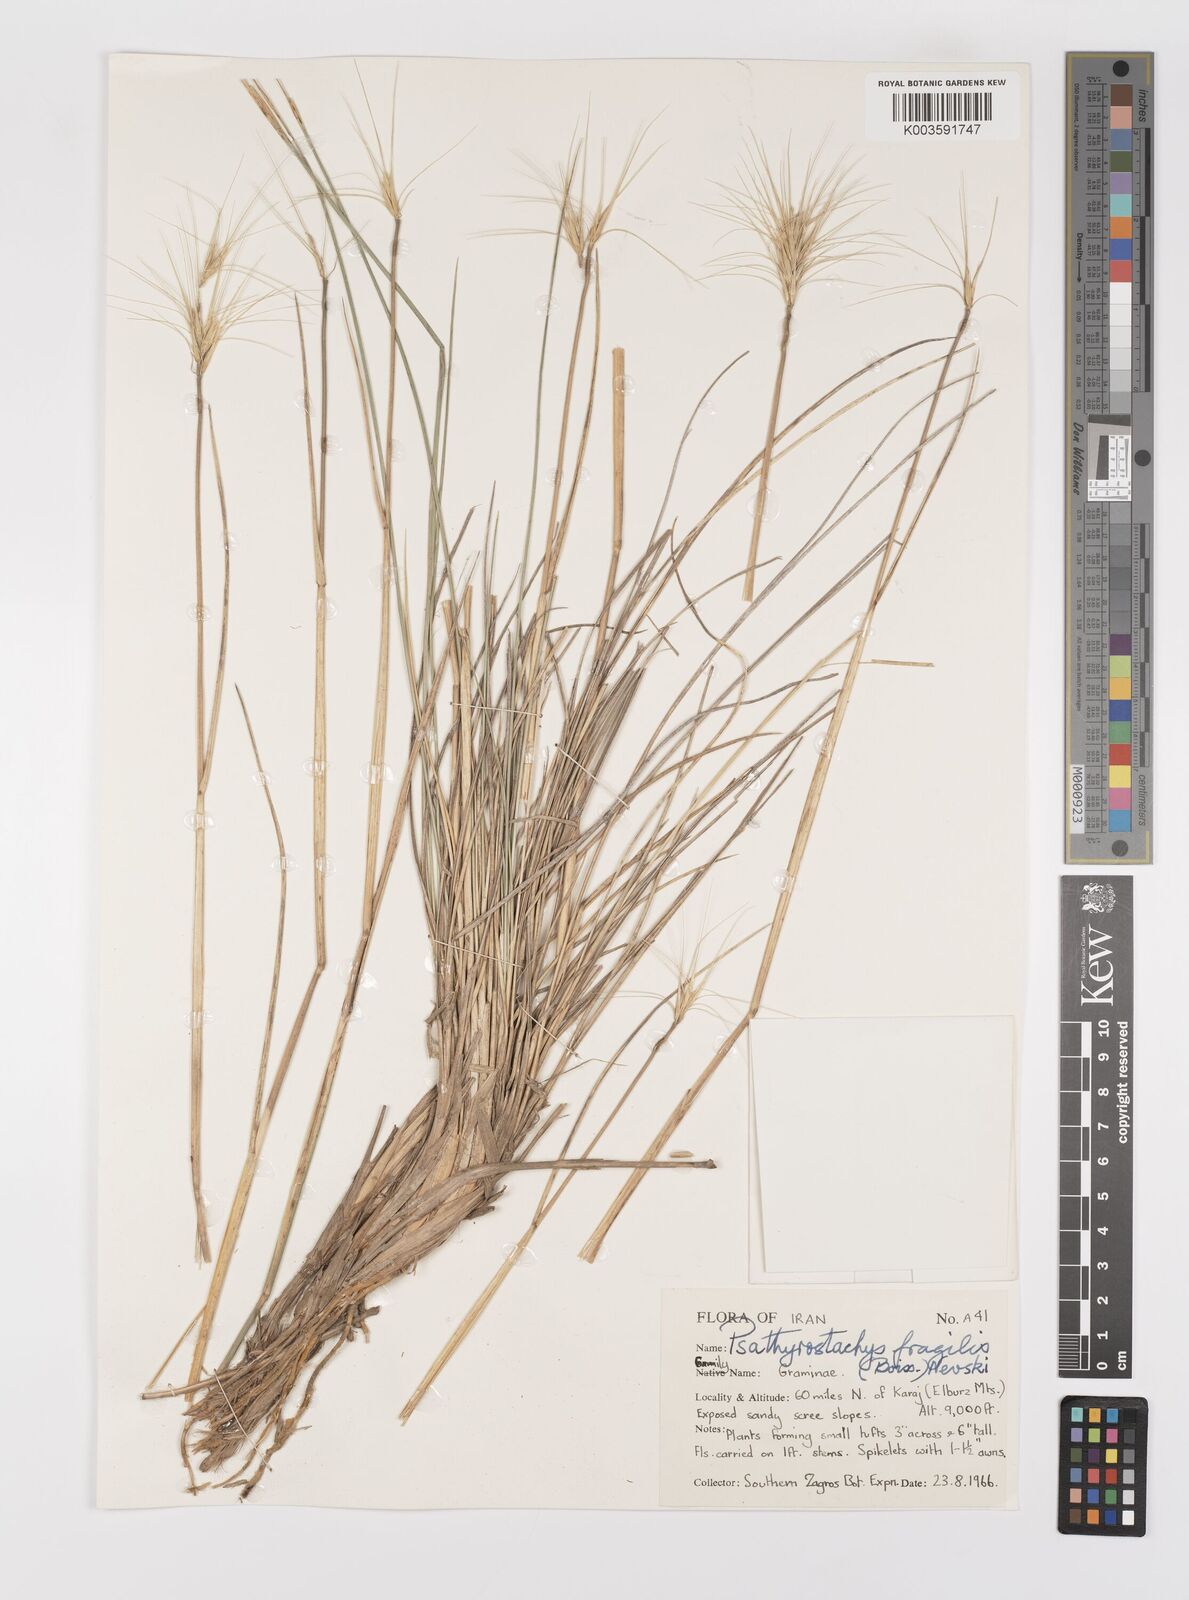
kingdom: Plantae
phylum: Tracheophyta
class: Liliopsida
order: Poales
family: Poaceae
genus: Psathyrostachys
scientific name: Psathyrostachys fragilis
